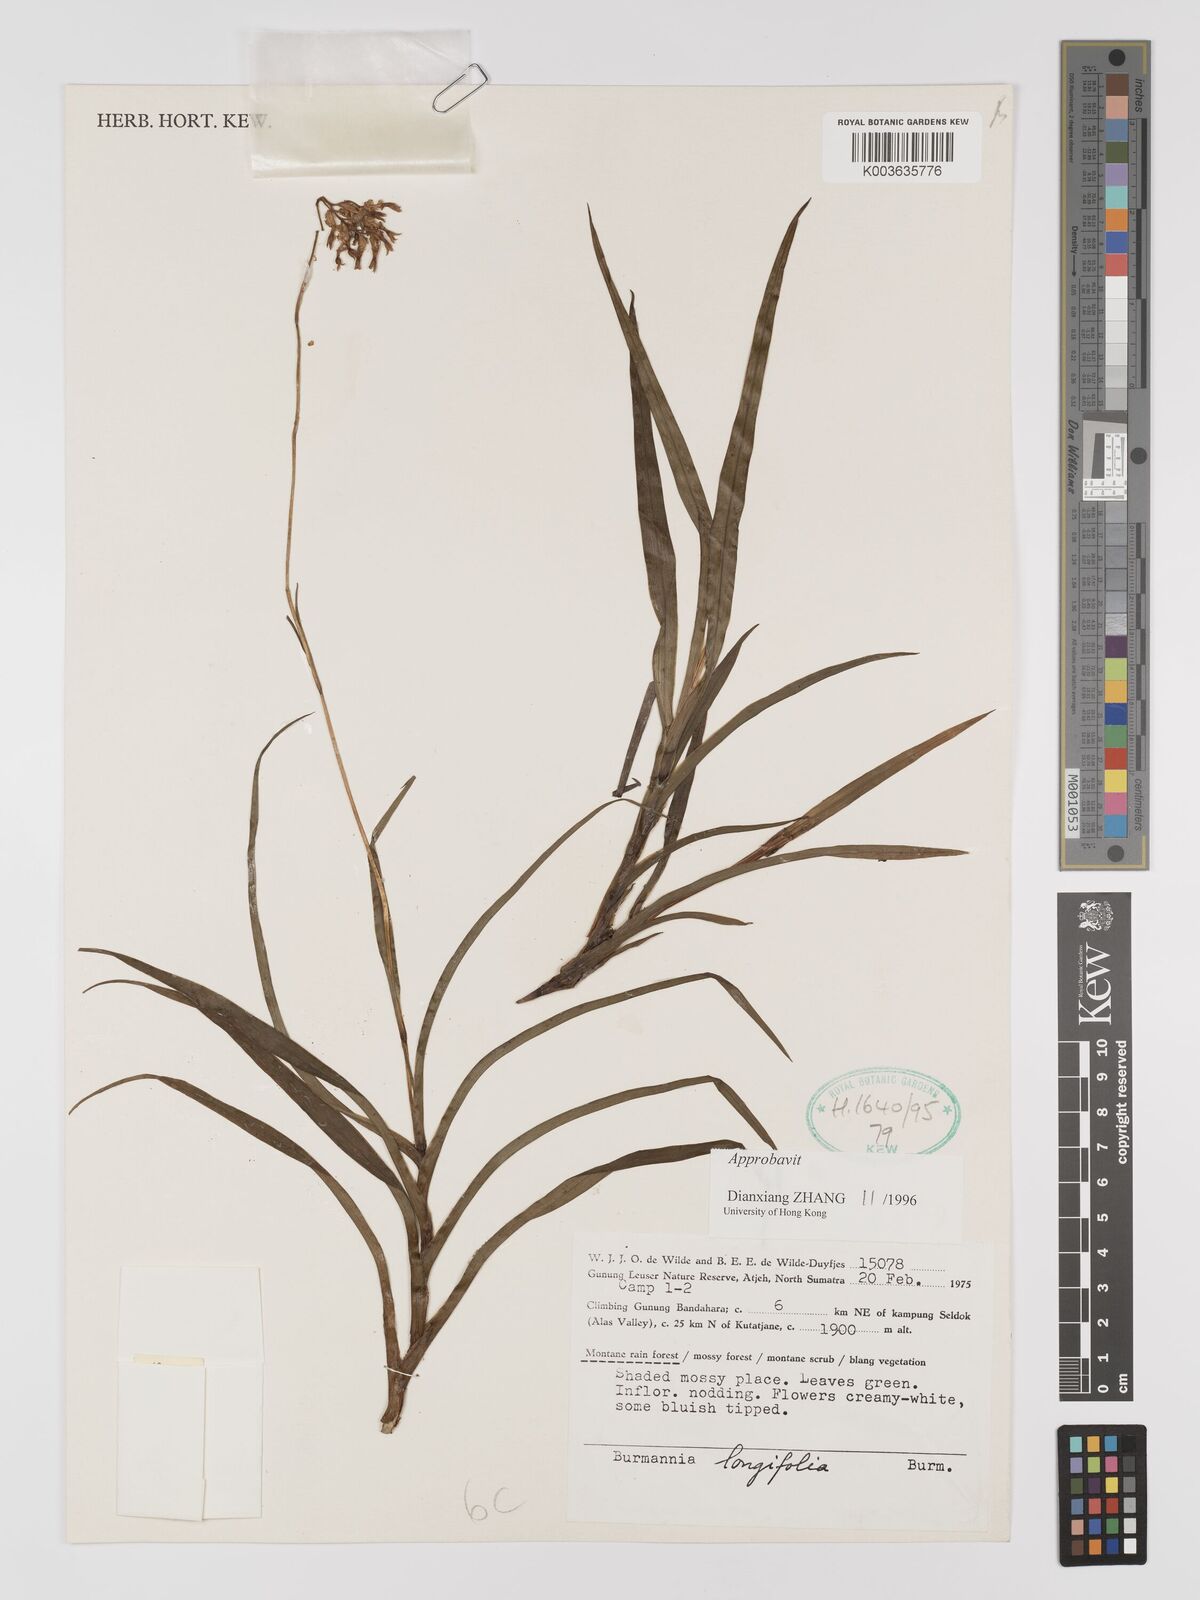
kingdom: Plantae
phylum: Tracheophyta
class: Liliopsida
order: Dioscoreales
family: Burmanniaceae
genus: Burmannia
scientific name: Burmannia longifolia
